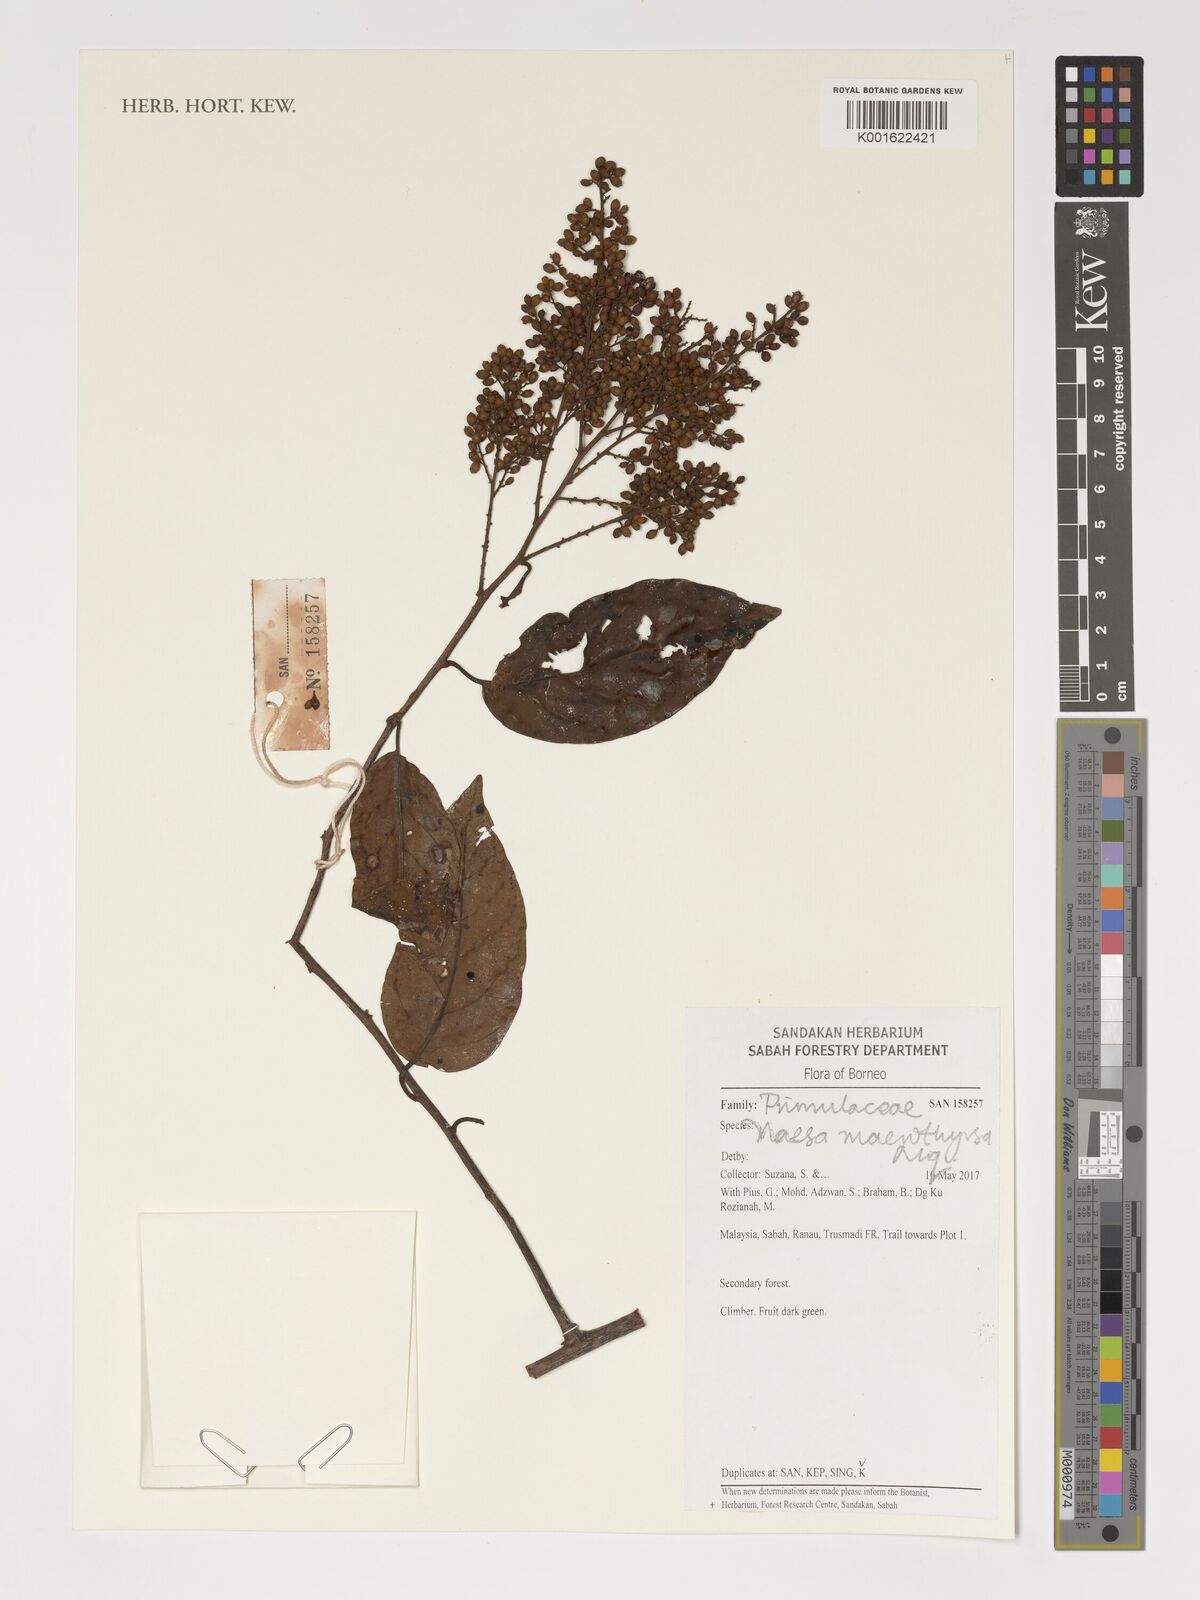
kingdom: Plantae
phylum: Tracheophyta
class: Magnoliopsida
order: Ericales
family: Primulaceae
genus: Maesa
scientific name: Maesa macrothyrsa
